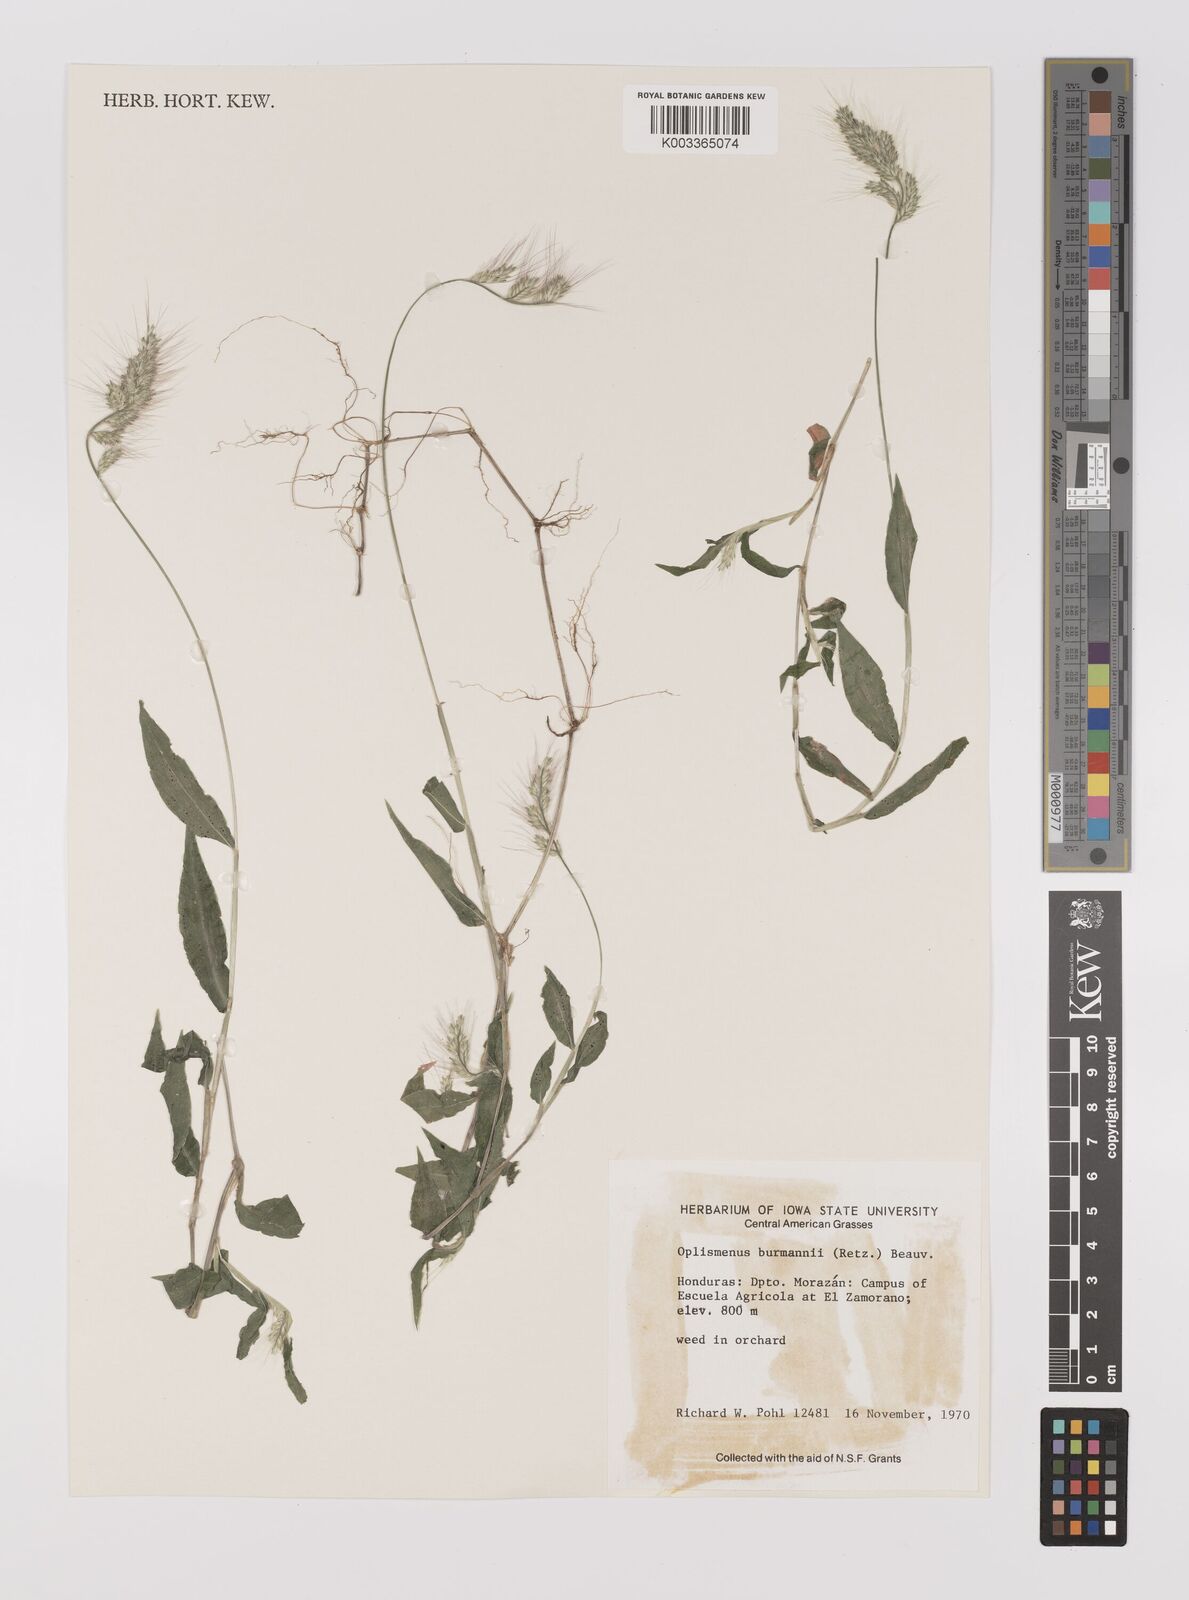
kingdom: Plantae
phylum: Tracheophyta
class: Liliopsida
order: Poales
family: Poaceae
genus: Oplismenus
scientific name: Oplismenus burmanni
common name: Burmann's basketgrass
